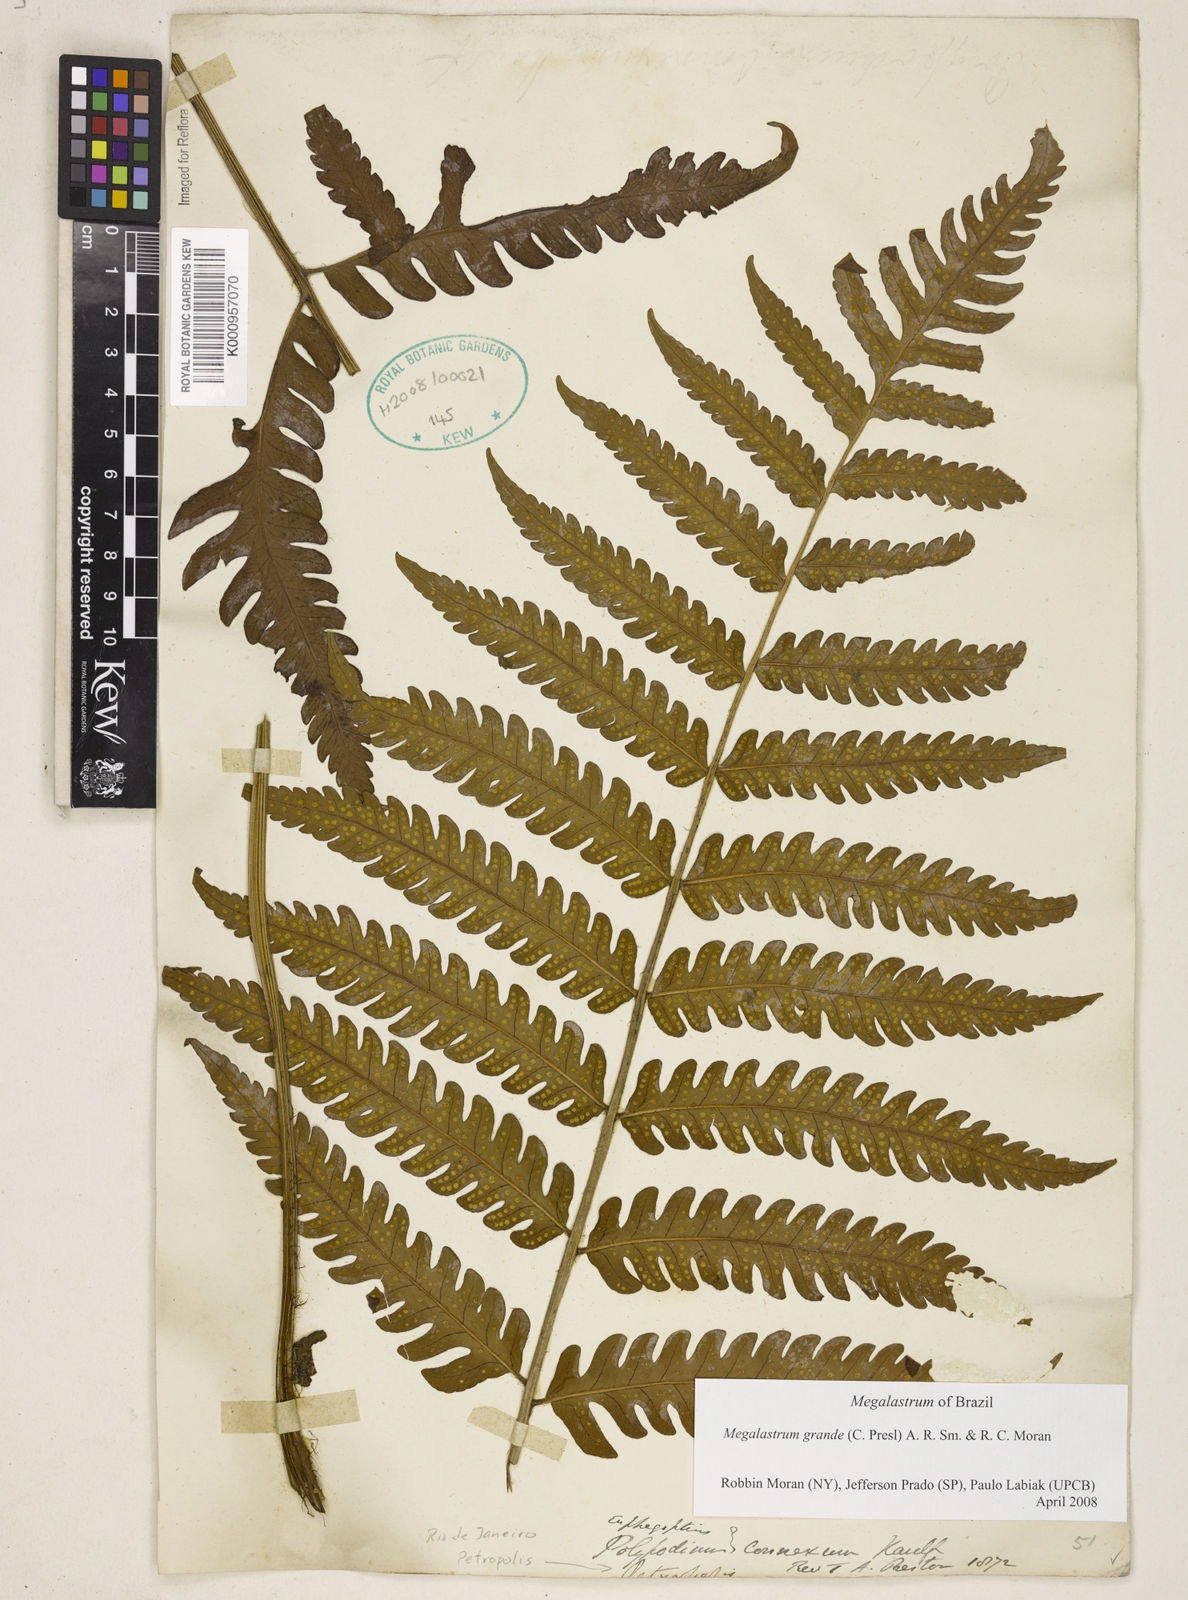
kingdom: Plantae
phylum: Tracheophyta
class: Polypodiopsida
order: Polypodiales
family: Dryopteridaceae
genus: Megalastrum
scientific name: Megalastrum grande
